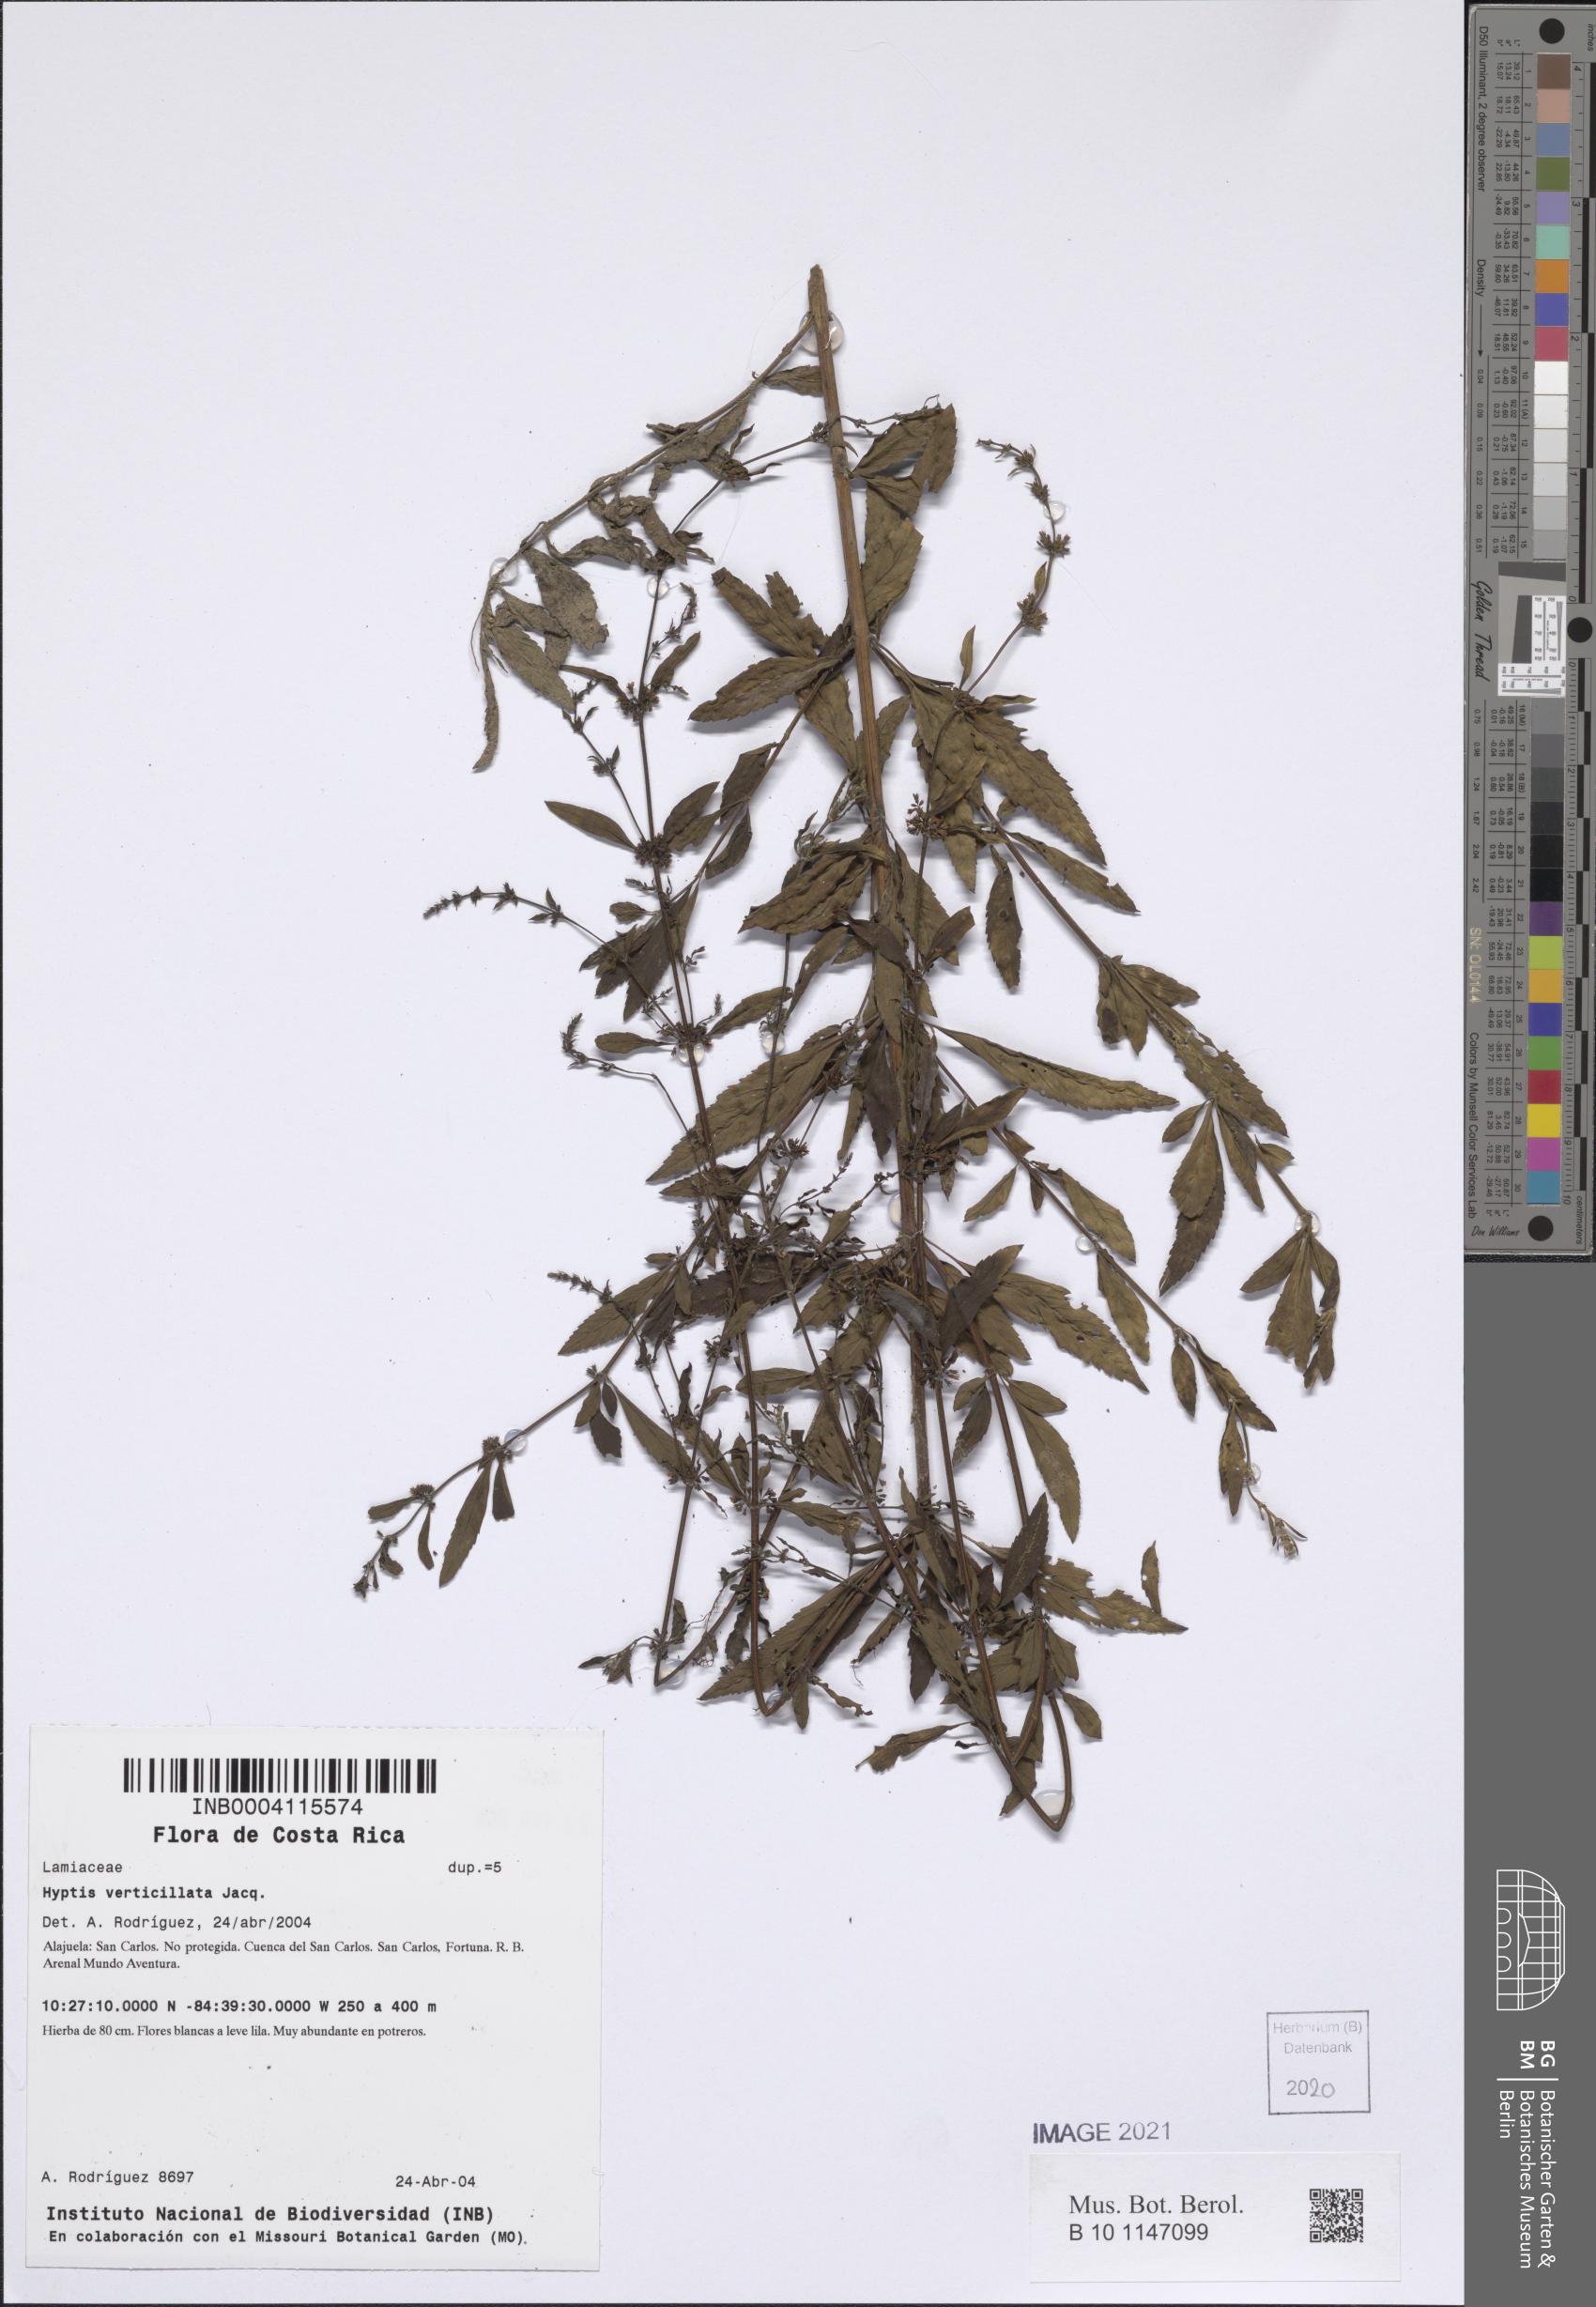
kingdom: Plantae
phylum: Tracheophyta
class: Magnoliopsida
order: Lamiales
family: Lamiaceae
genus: Condea
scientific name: Condea verticillata
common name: John charles
